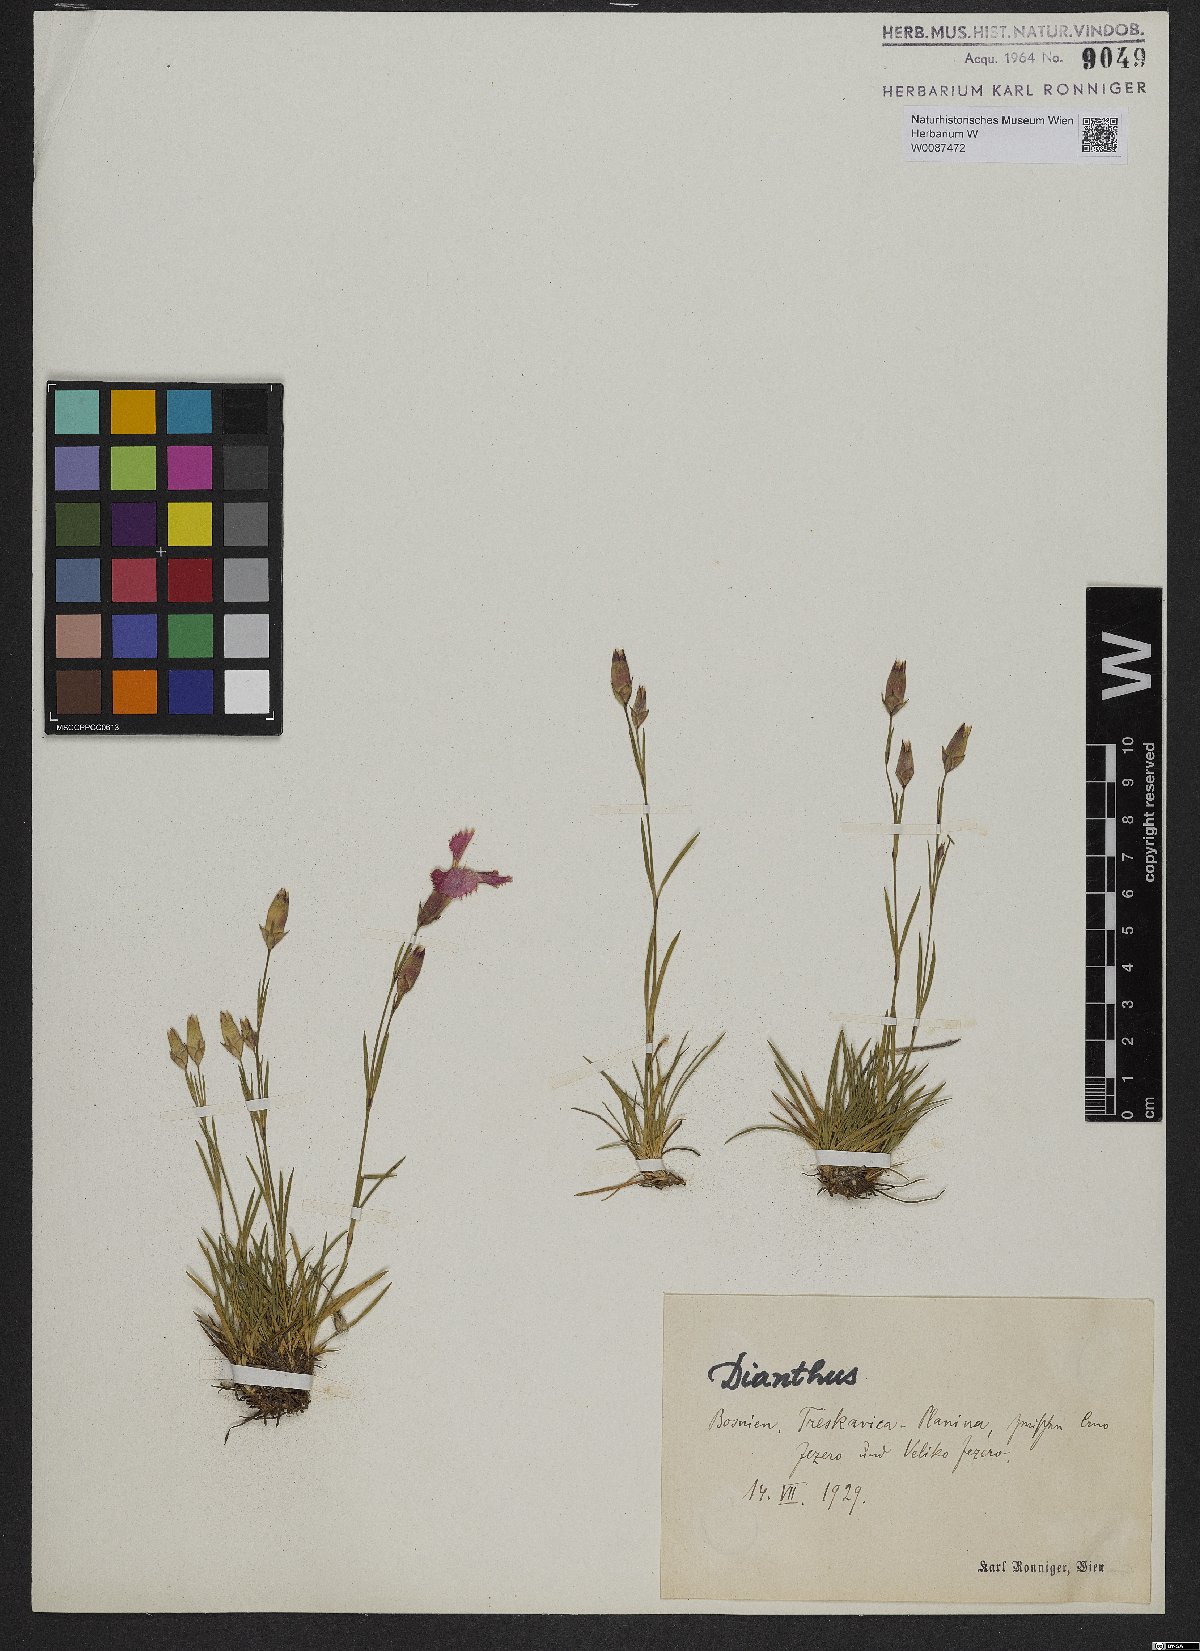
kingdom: Plantae
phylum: Tracheophyta
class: Magnoliopsida
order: Caryophyllales
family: Caryophyllaceae
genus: Dianthus
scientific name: Dianthus
